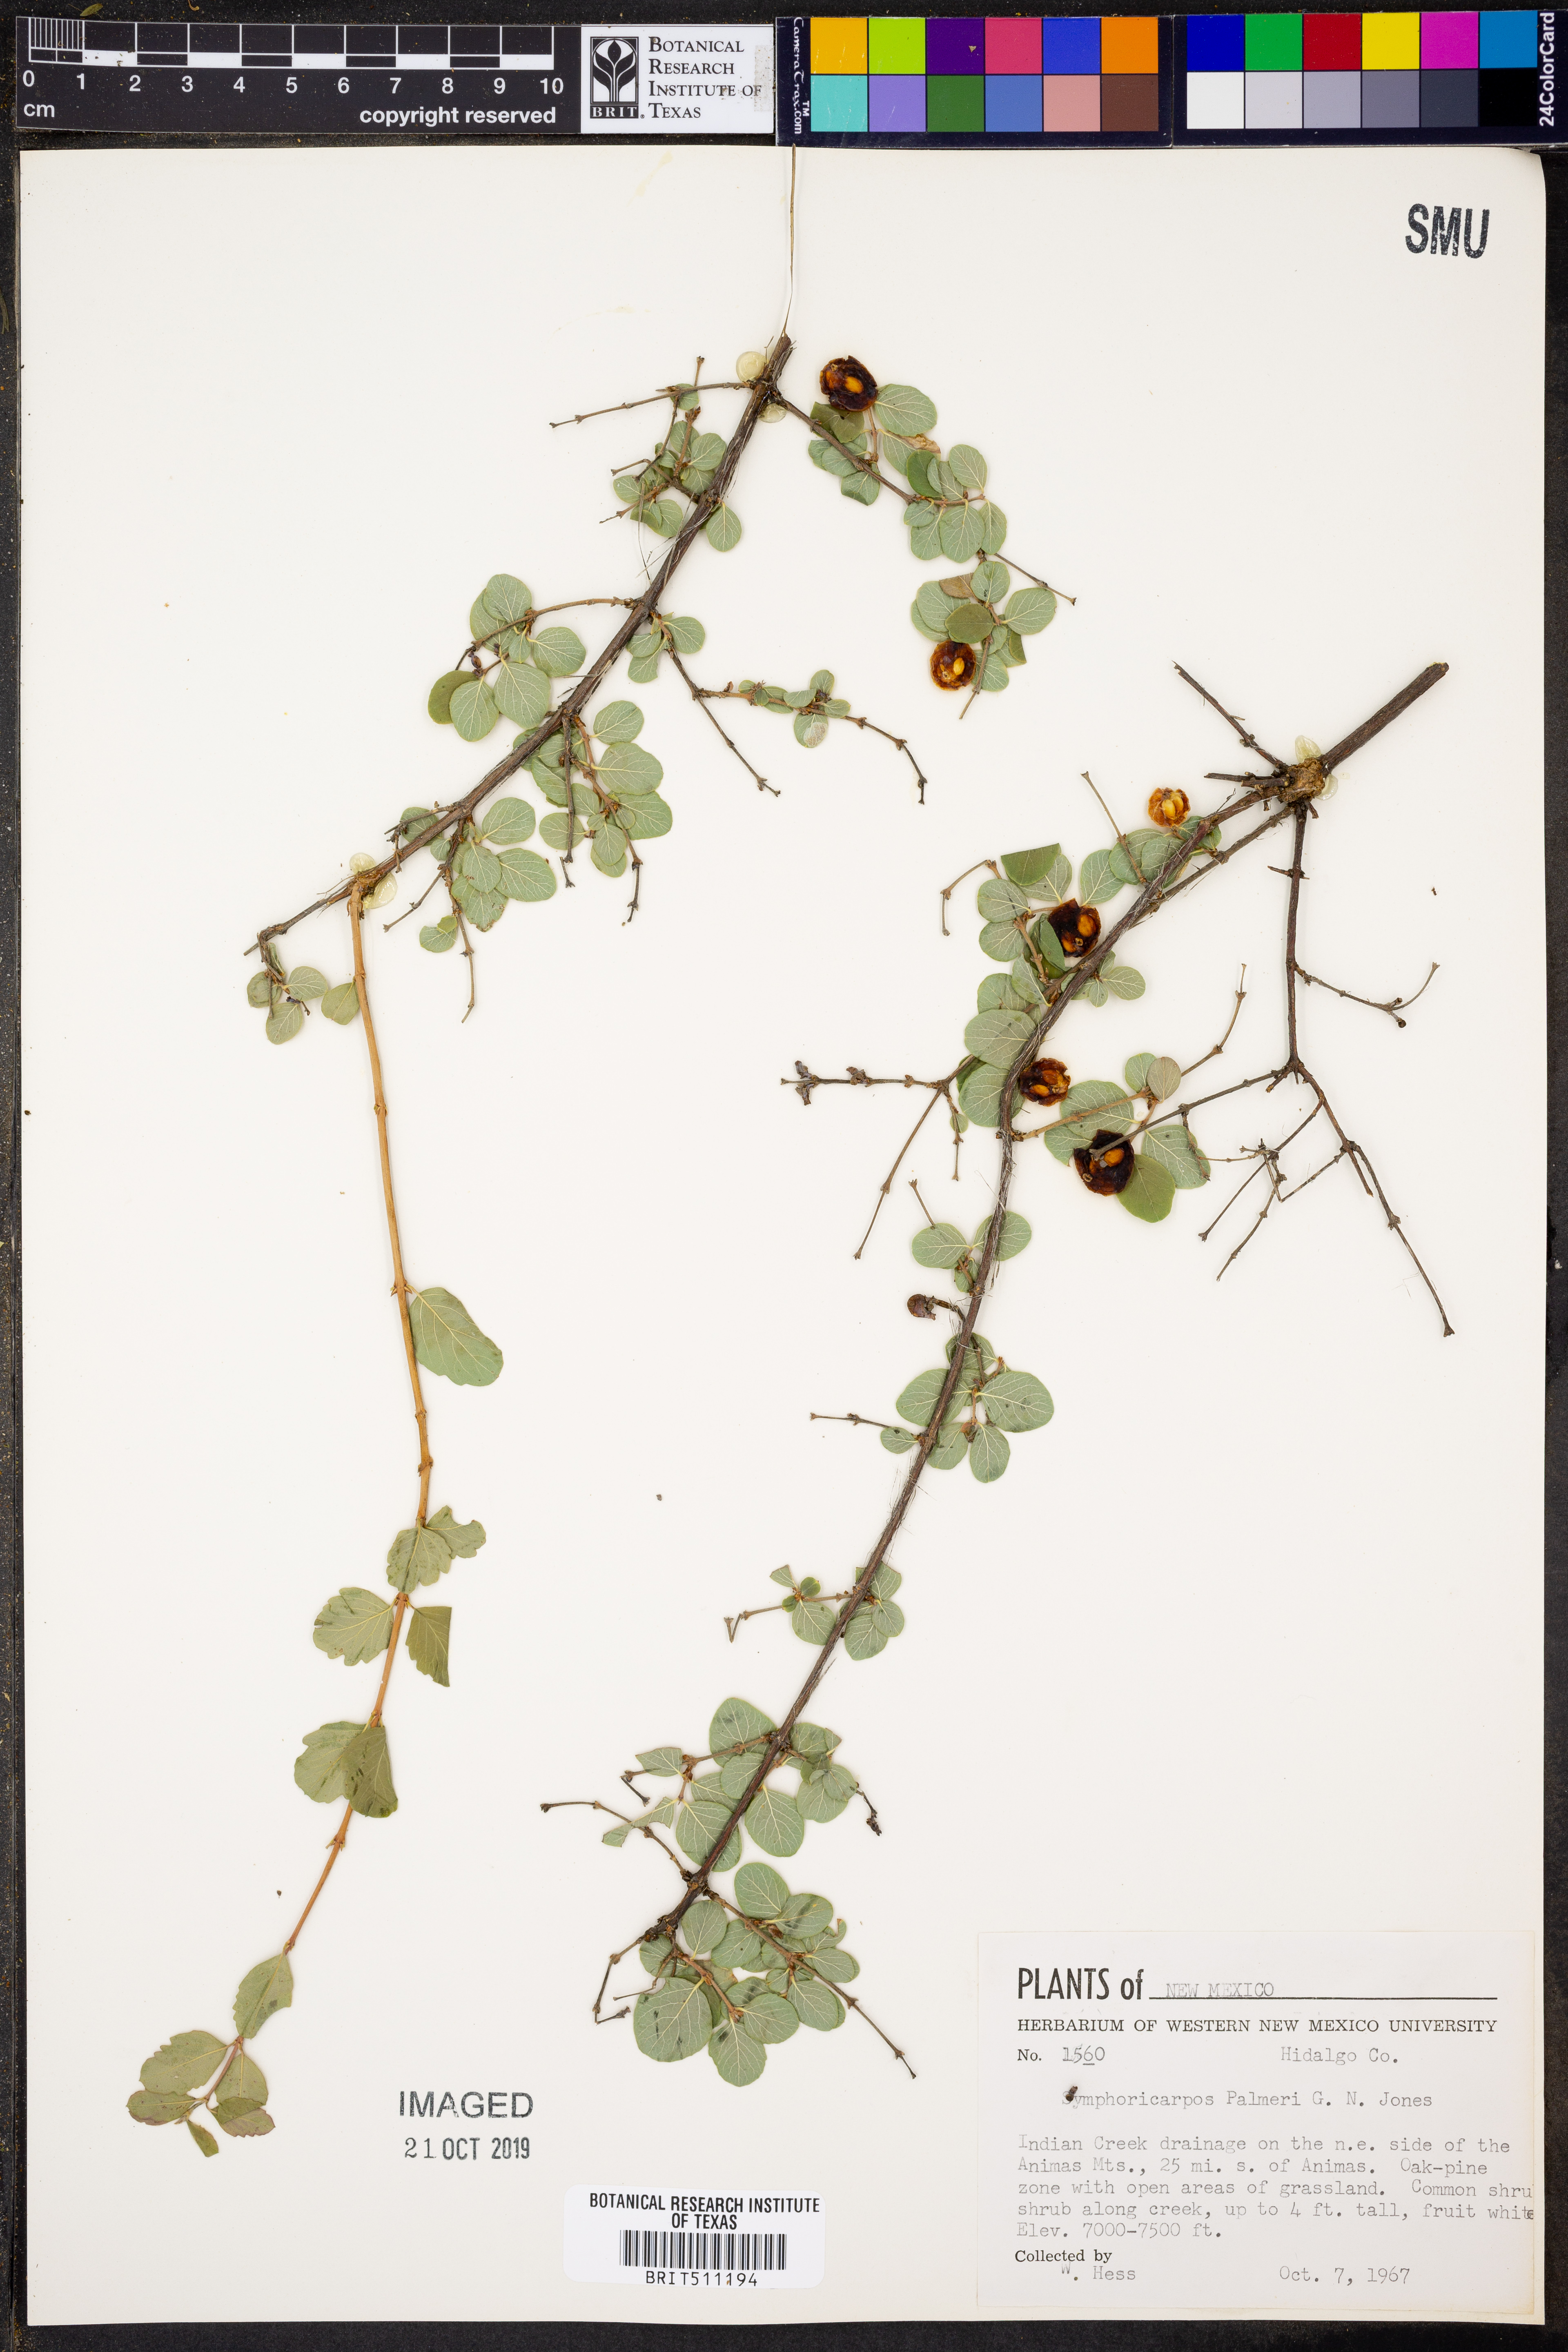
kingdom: Plantae
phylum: Tracheophyta
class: Magnoliopsida
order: Dipsacales
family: Caprifoliaceae
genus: Symphoricarpos
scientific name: Symphoricarpos palmeri
